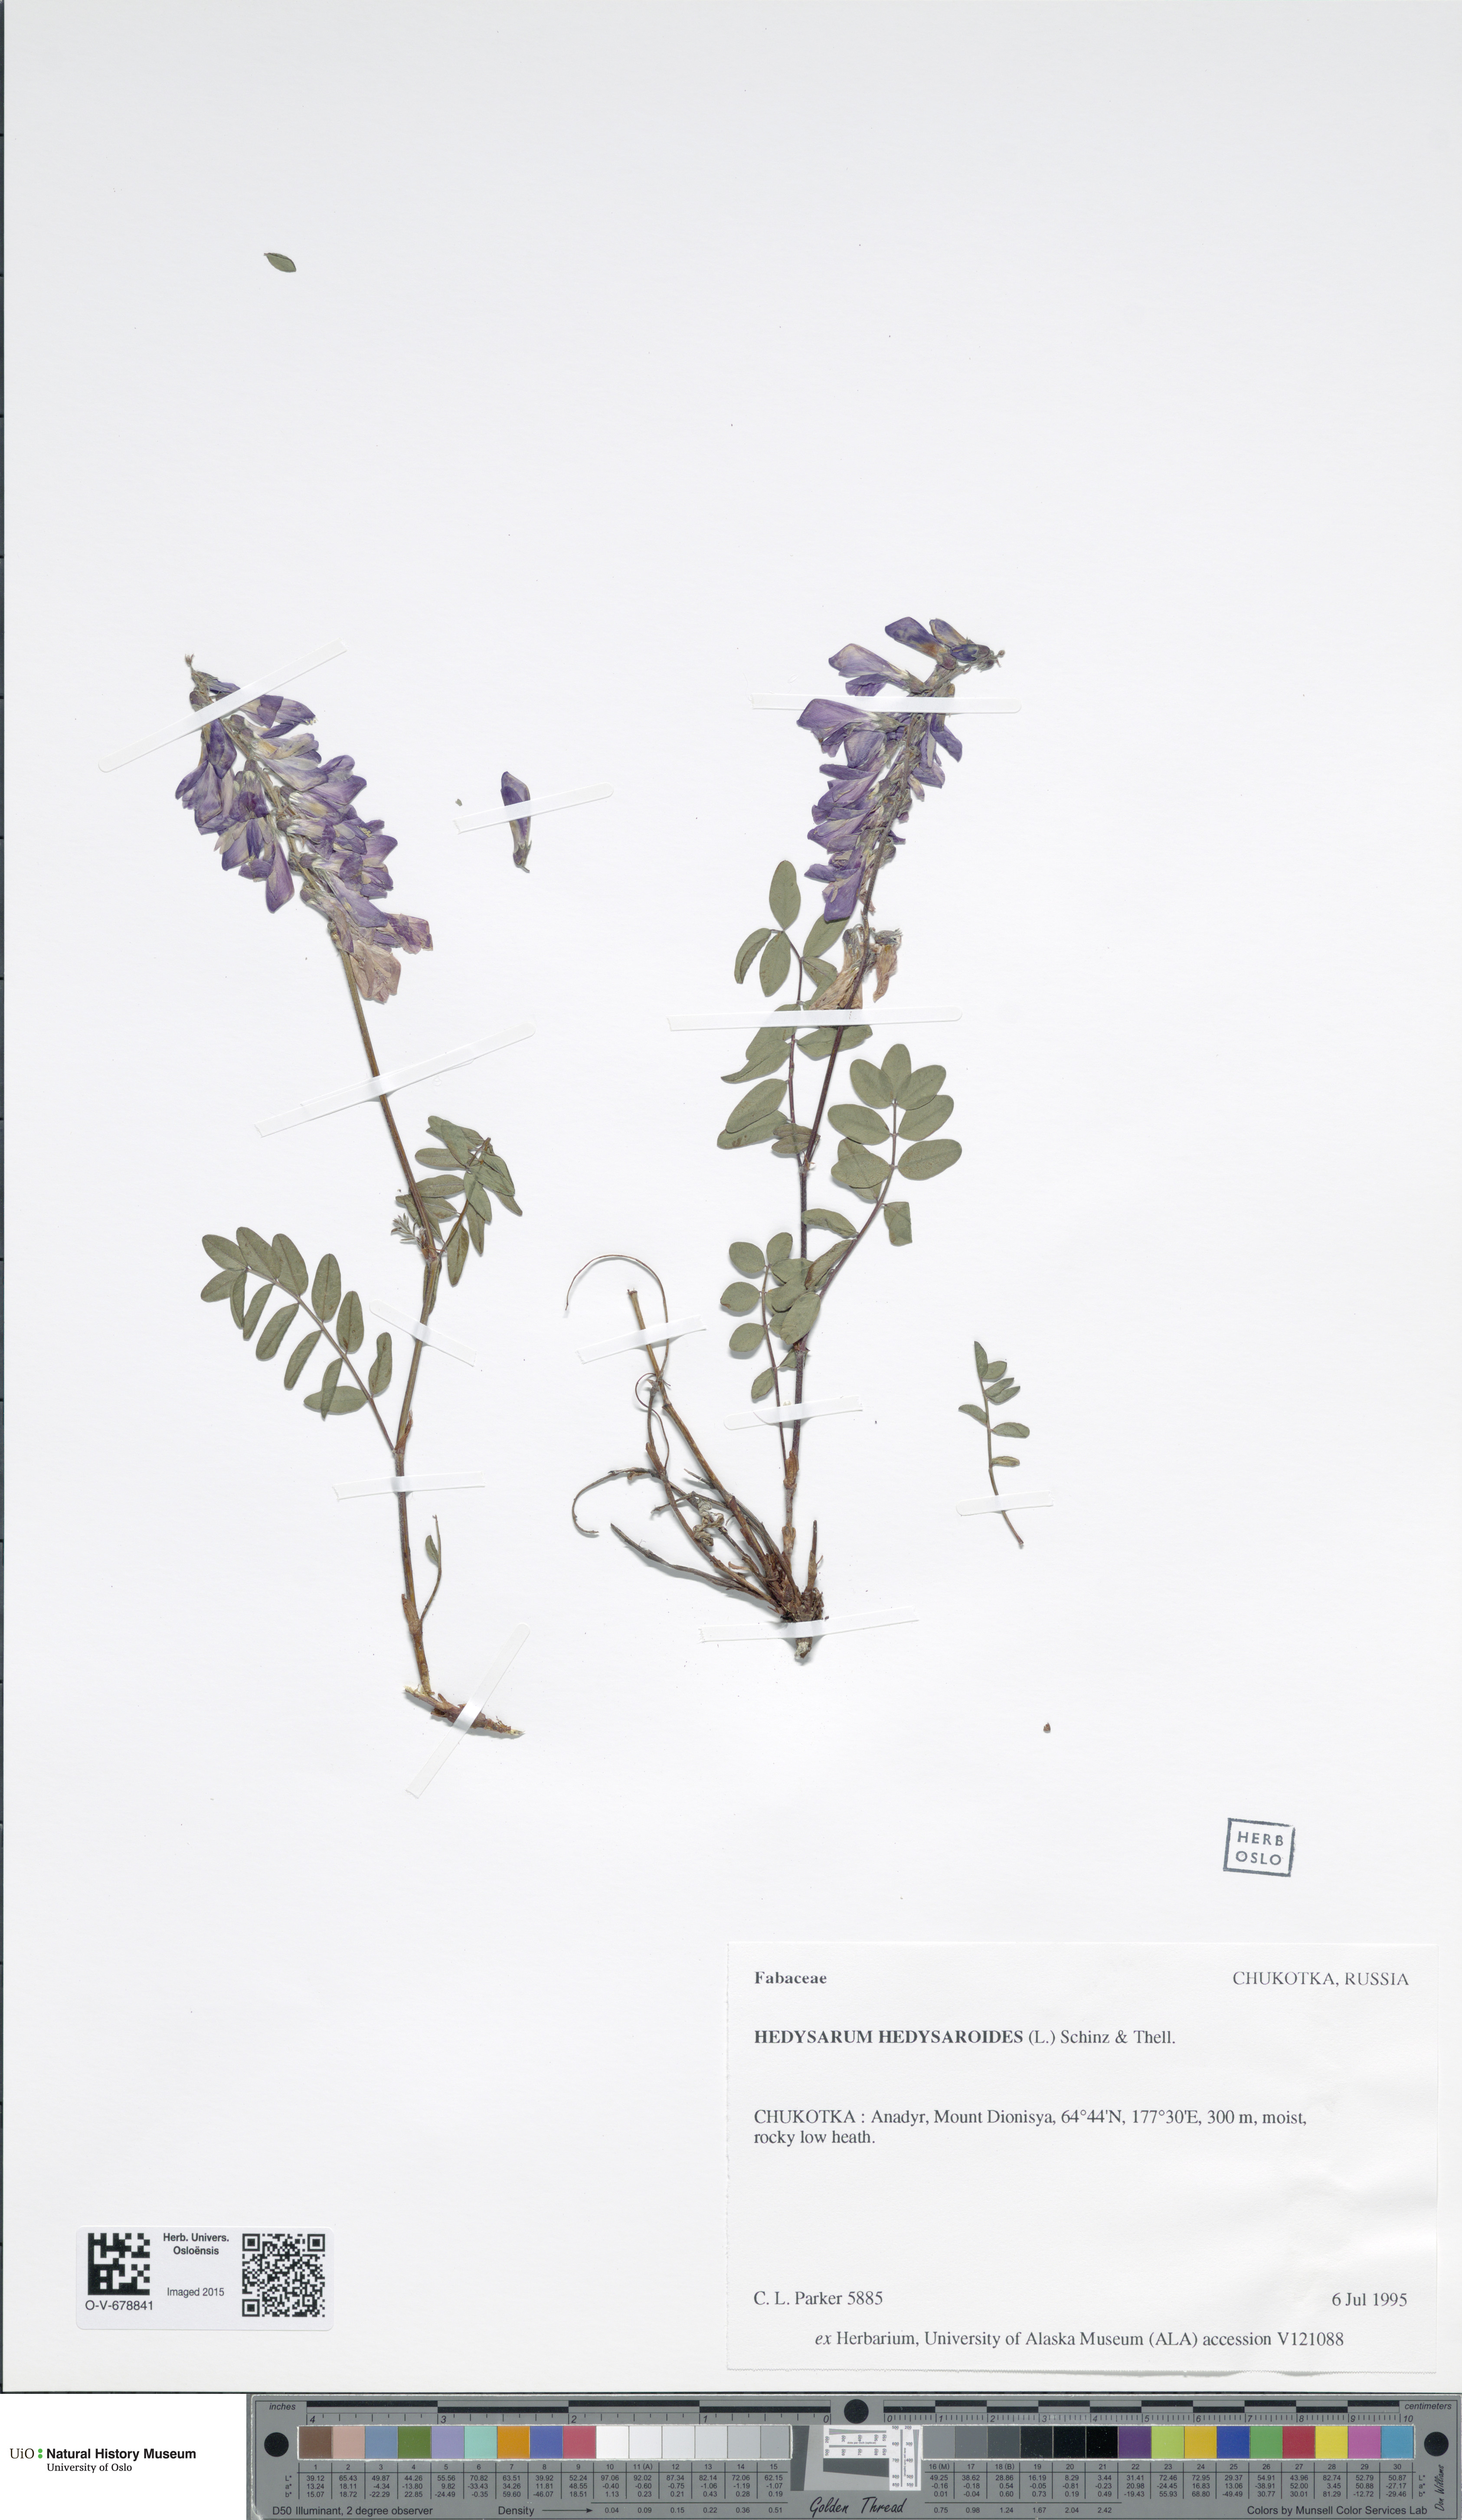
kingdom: Plantae
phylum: Tracheophyta
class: Magnoliopsida
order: Fabales
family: Fabaceae
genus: Hedysarum
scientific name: Hedysarum hedysaroides
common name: Alpine french-honeysuckle
